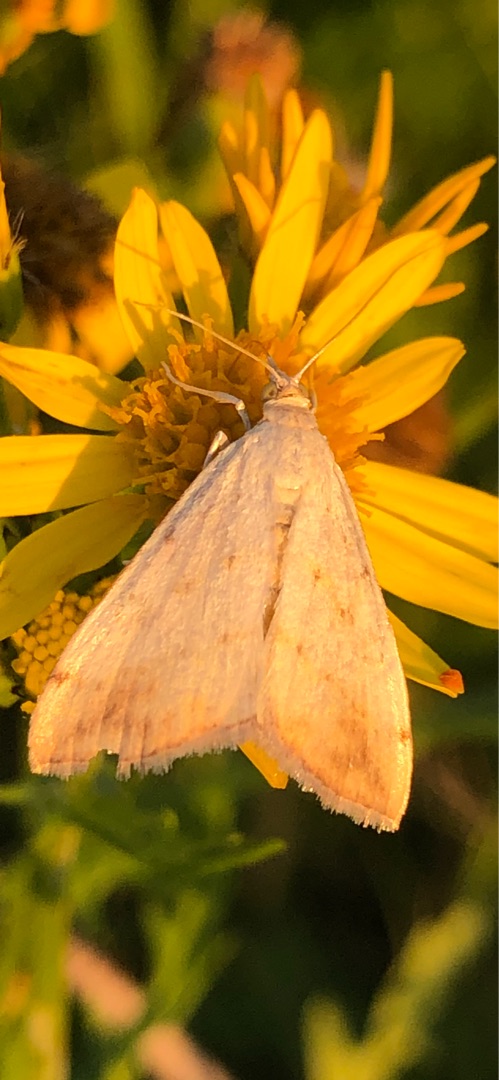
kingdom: Animalia
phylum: Arthropoda
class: Insecta
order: Lepidoptera
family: Crambidae
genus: Evergestis
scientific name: Evergestis extimalis
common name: Korsblomsthalvmøl
